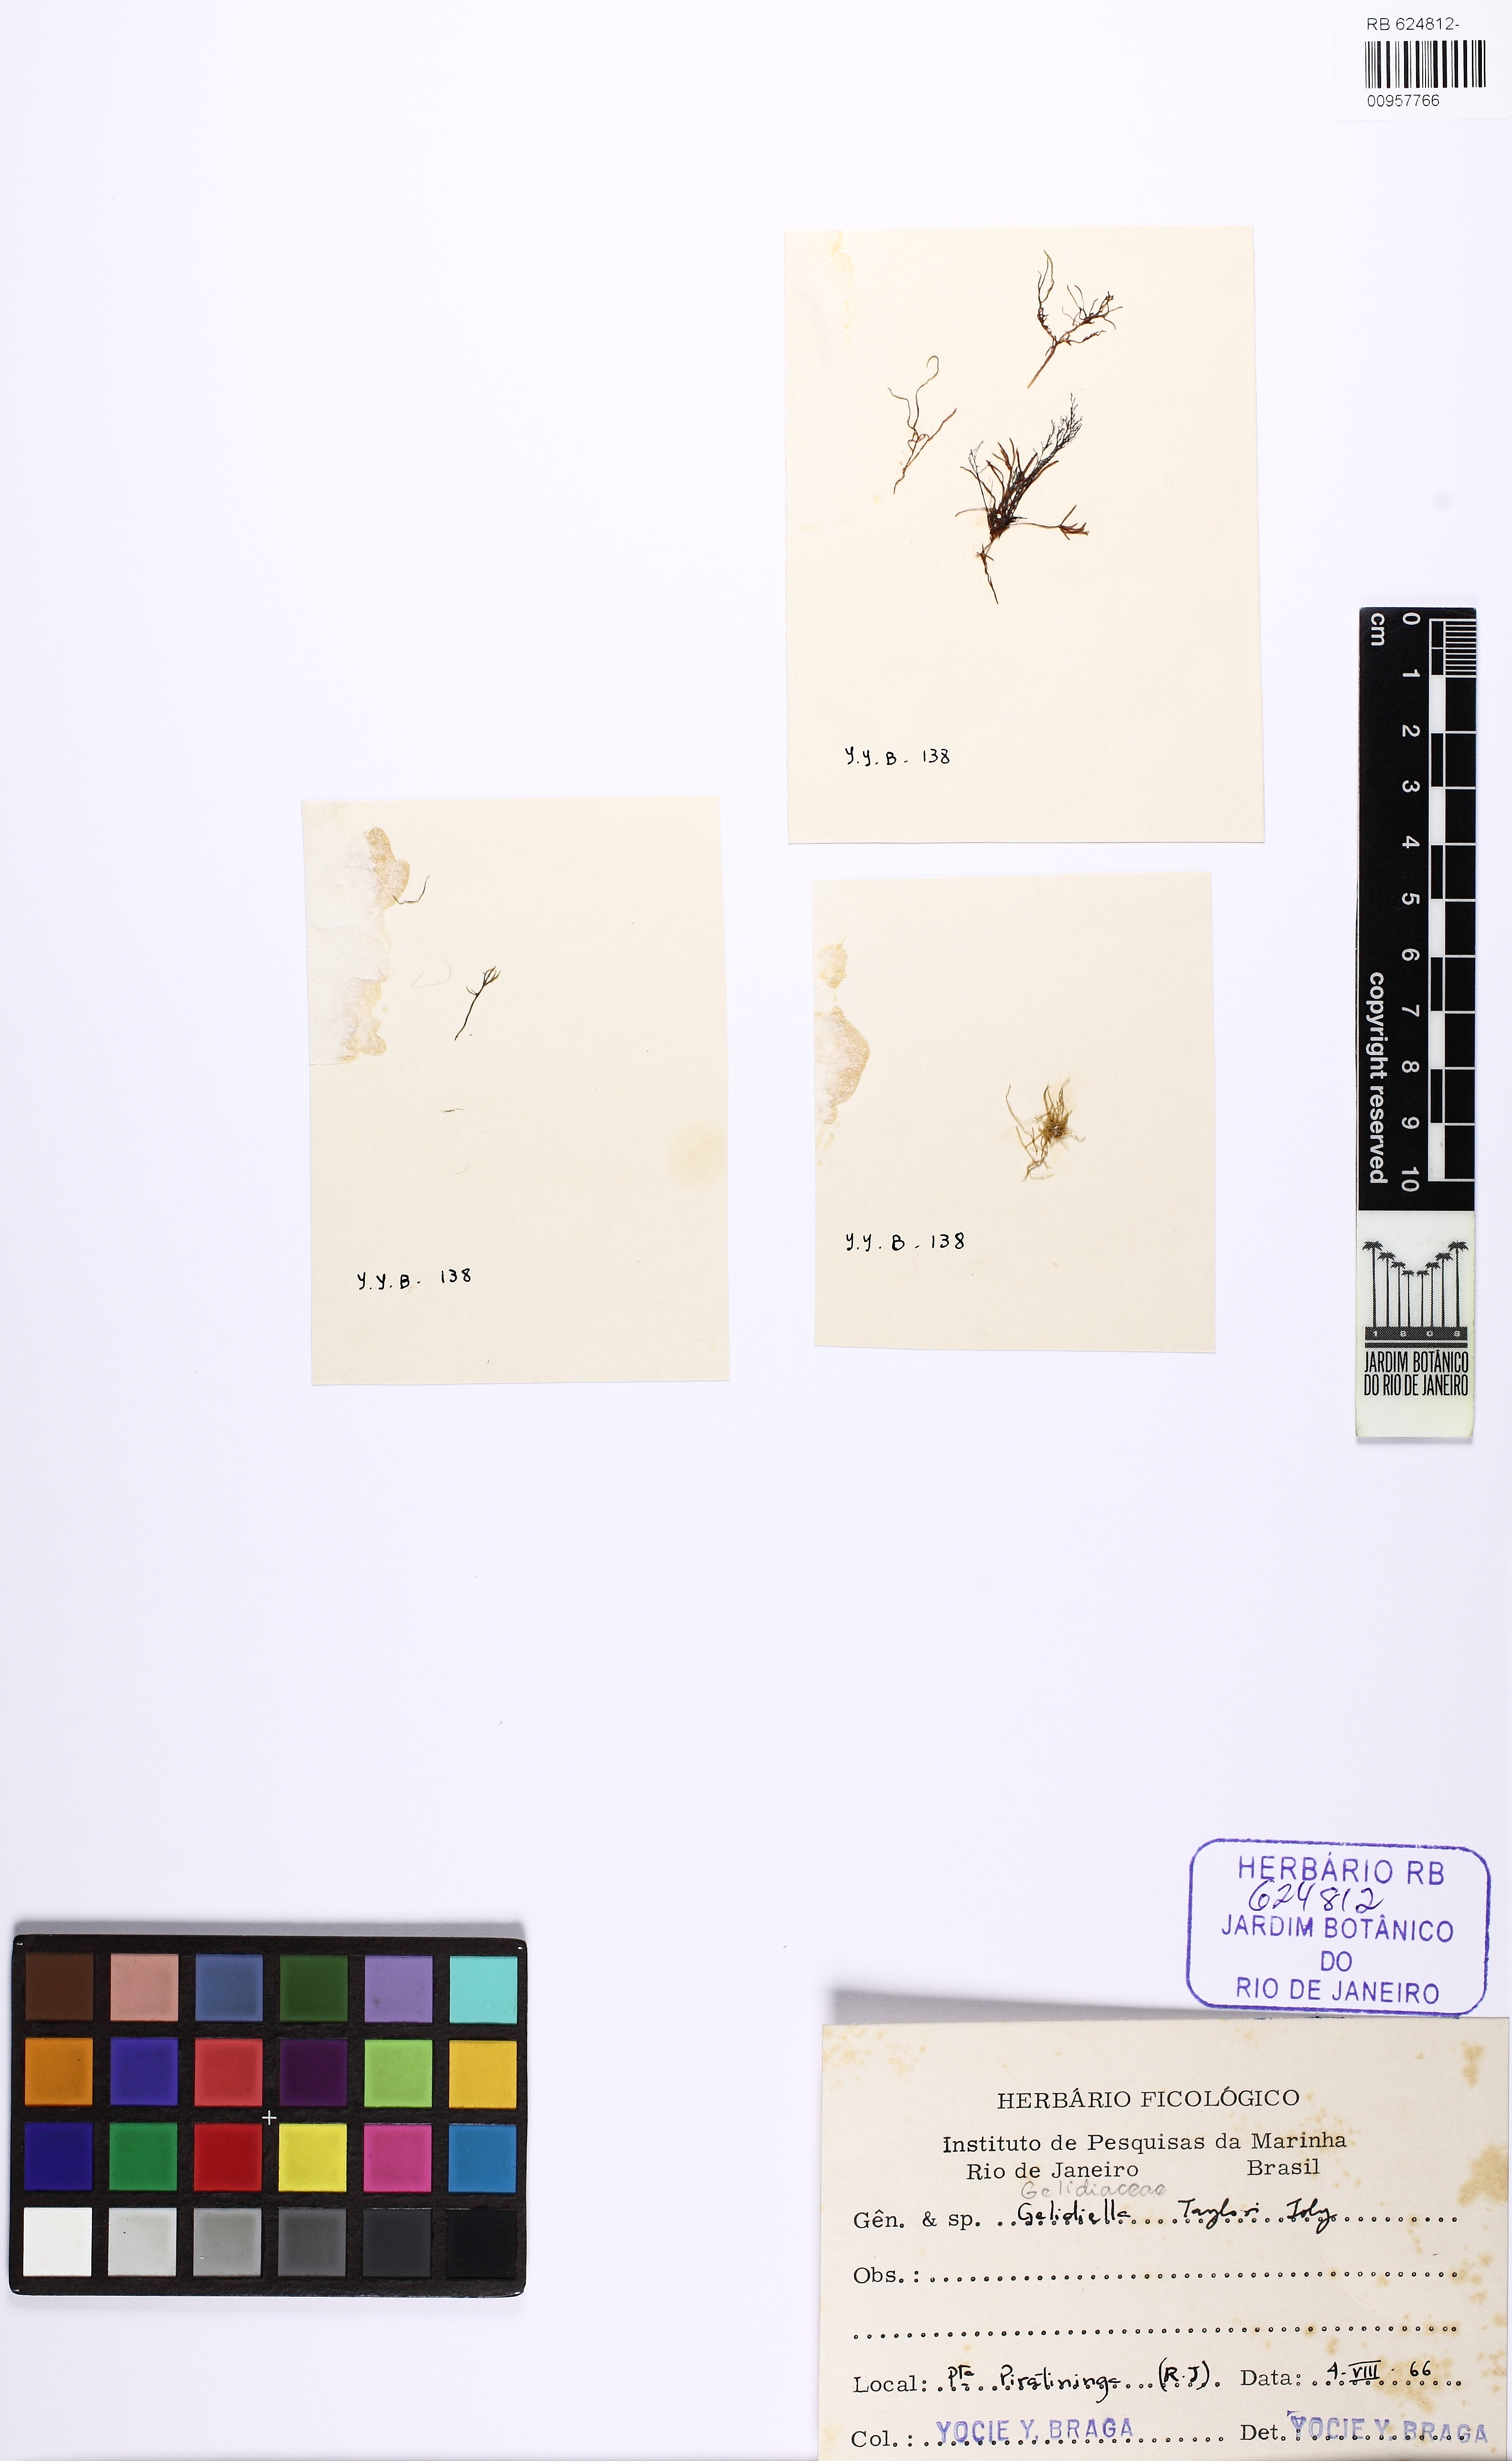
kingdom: Plantae
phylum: Rhodophyta
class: Florideophyceae
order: Gelidiales
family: Pterocladiaceae
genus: Pterocladiella
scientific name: Pterocladiella taylorii
